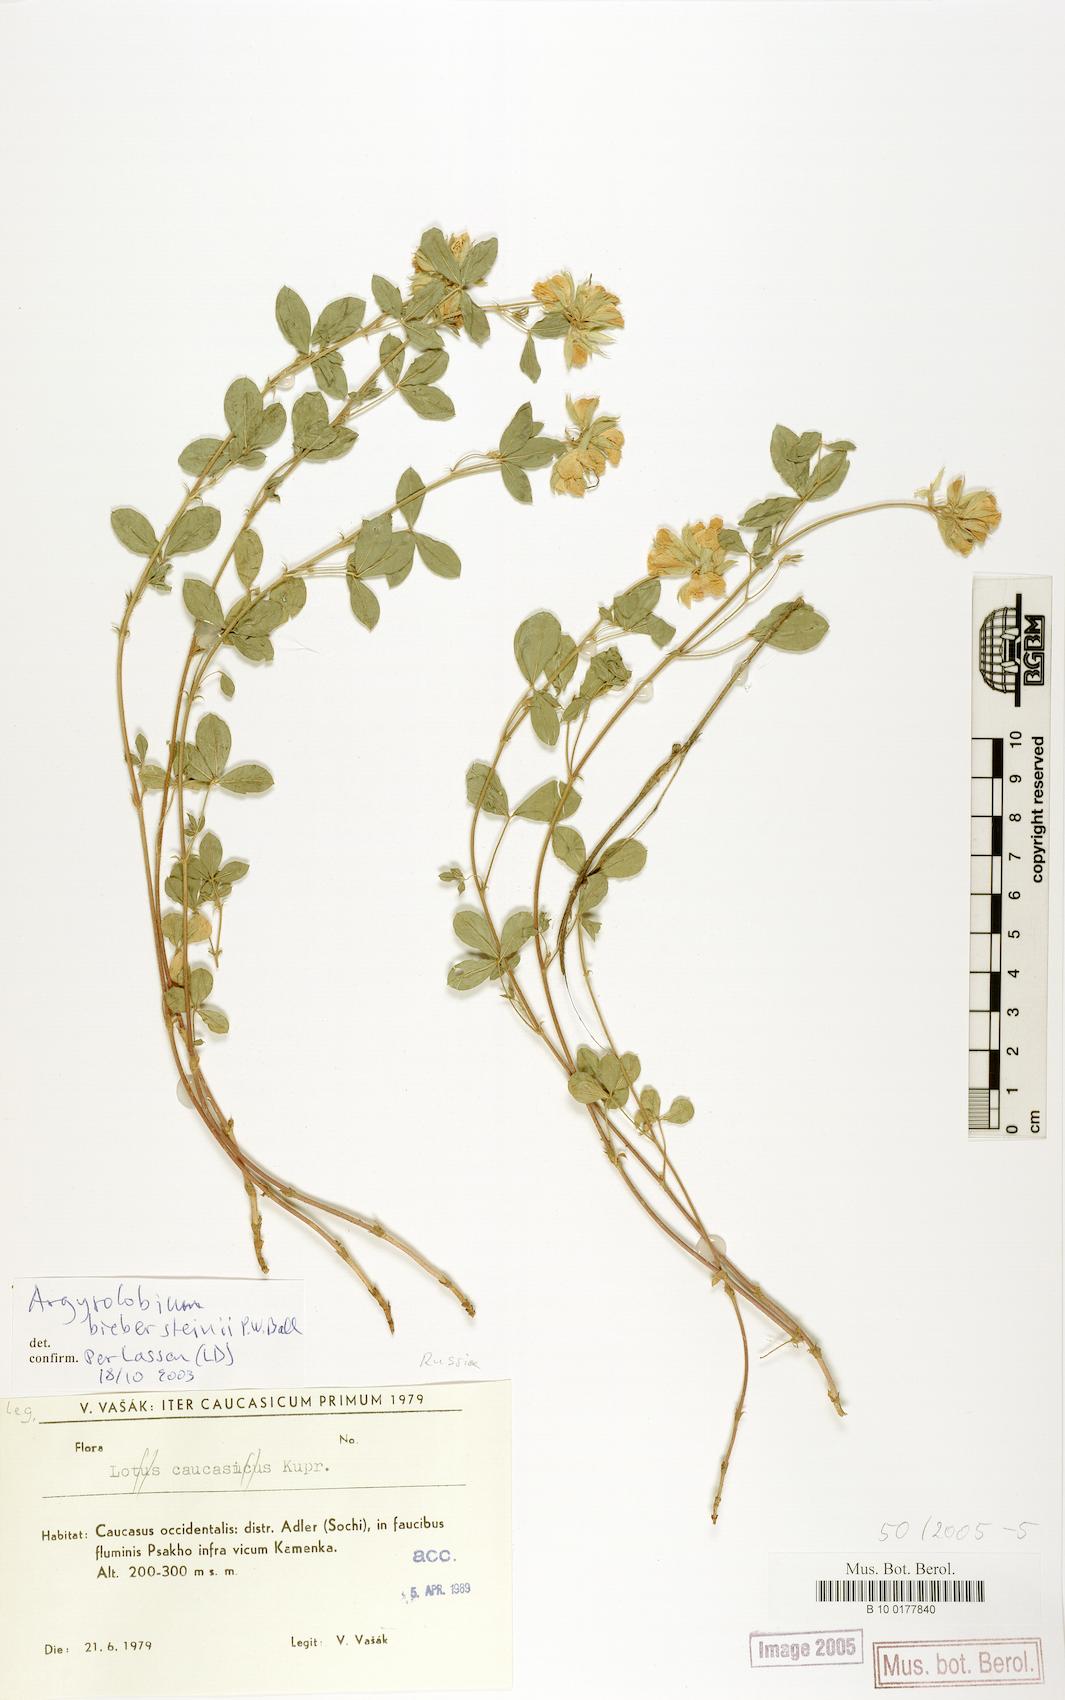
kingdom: Plantae
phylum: Tracheophyta
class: Magnoliopsida
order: Fabales
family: Fabaceae
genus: Argyrolobium
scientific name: Argyrolobium biebersteinii
